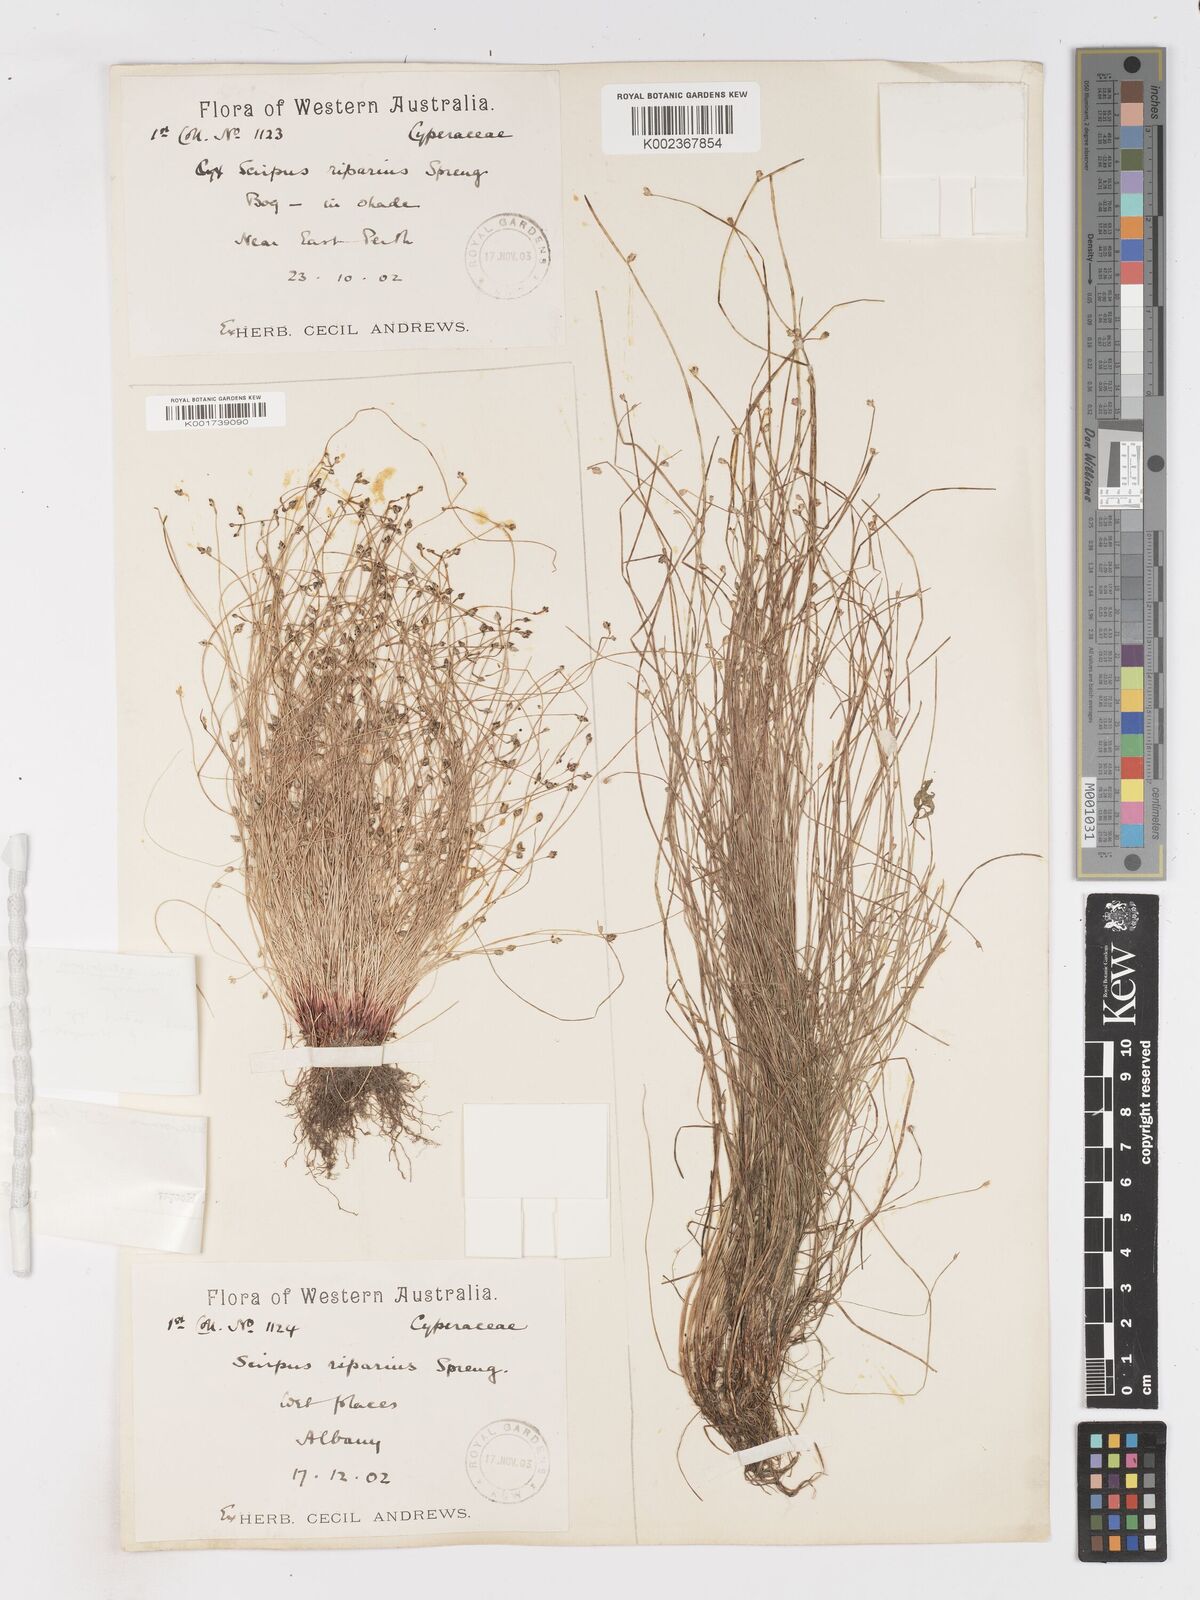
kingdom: Plantae
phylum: Tracheophyta
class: Liliopsida
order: Poales
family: Cyperaceae
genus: Isolepis
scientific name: Isolepis cernua
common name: Slender club-rush
